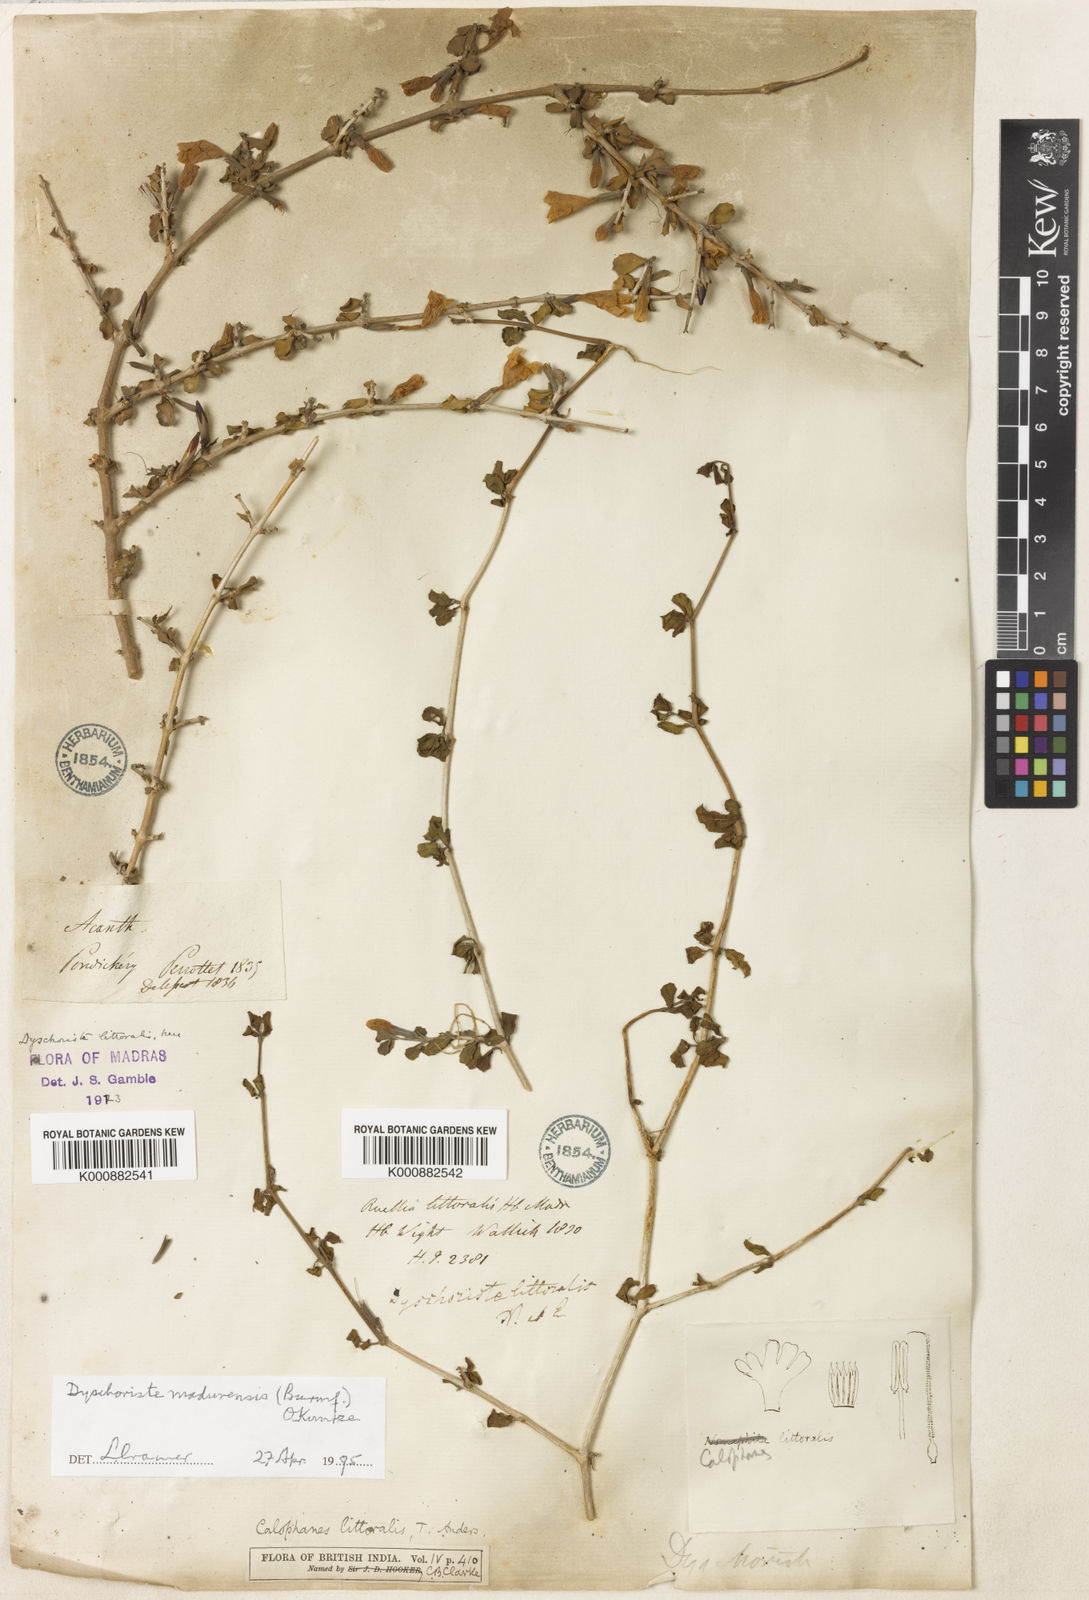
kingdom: Plantae
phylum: Tracheophyta
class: Magnoliopsida
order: Lamiales
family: Acanthaceae
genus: Dyschoriste
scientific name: Dyschoriste madurensis
